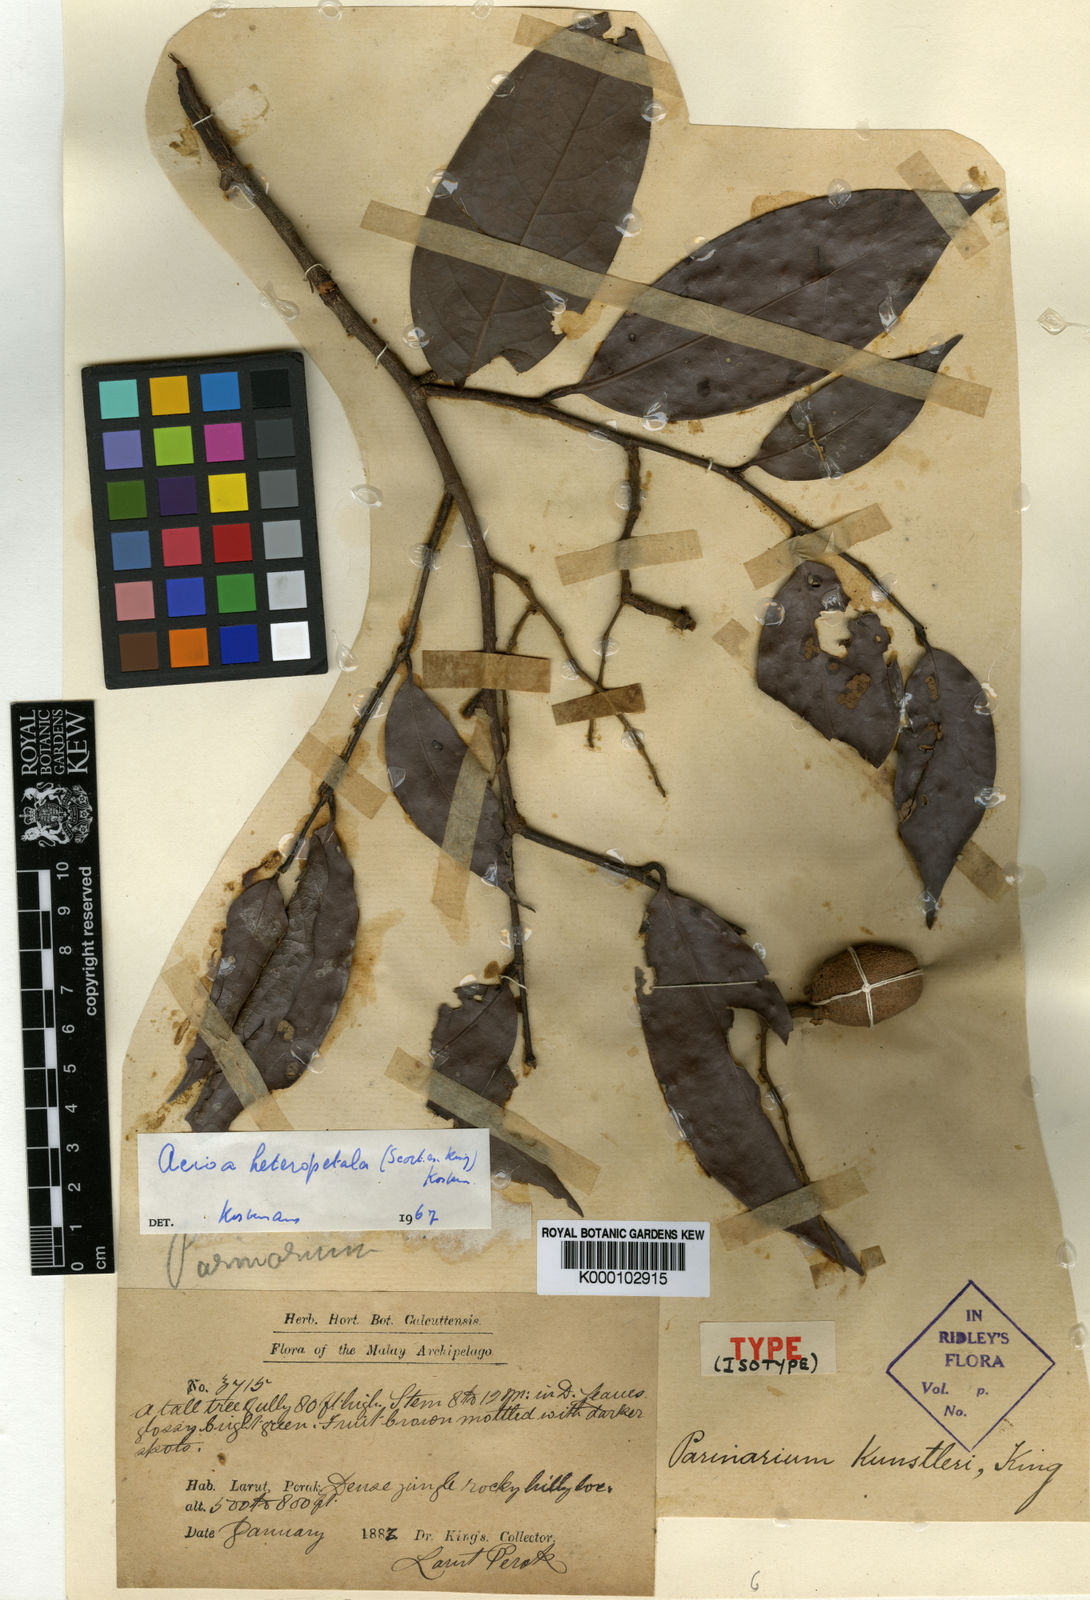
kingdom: Plantae
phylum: Tracheophyta
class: Magnoliopsida
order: Malpighiales
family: Chrysobalanaceae
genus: Kostermanthus
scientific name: Kostermanthus heteropetalus
